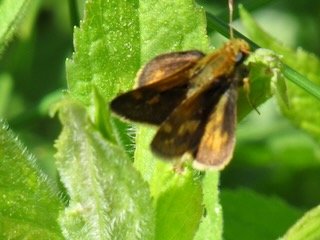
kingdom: Animalia
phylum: Arthropoda
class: Insecta
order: Lepidoptera
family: Hesperiidae
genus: Polites
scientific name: Polites coras
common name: Peck's Skipper
